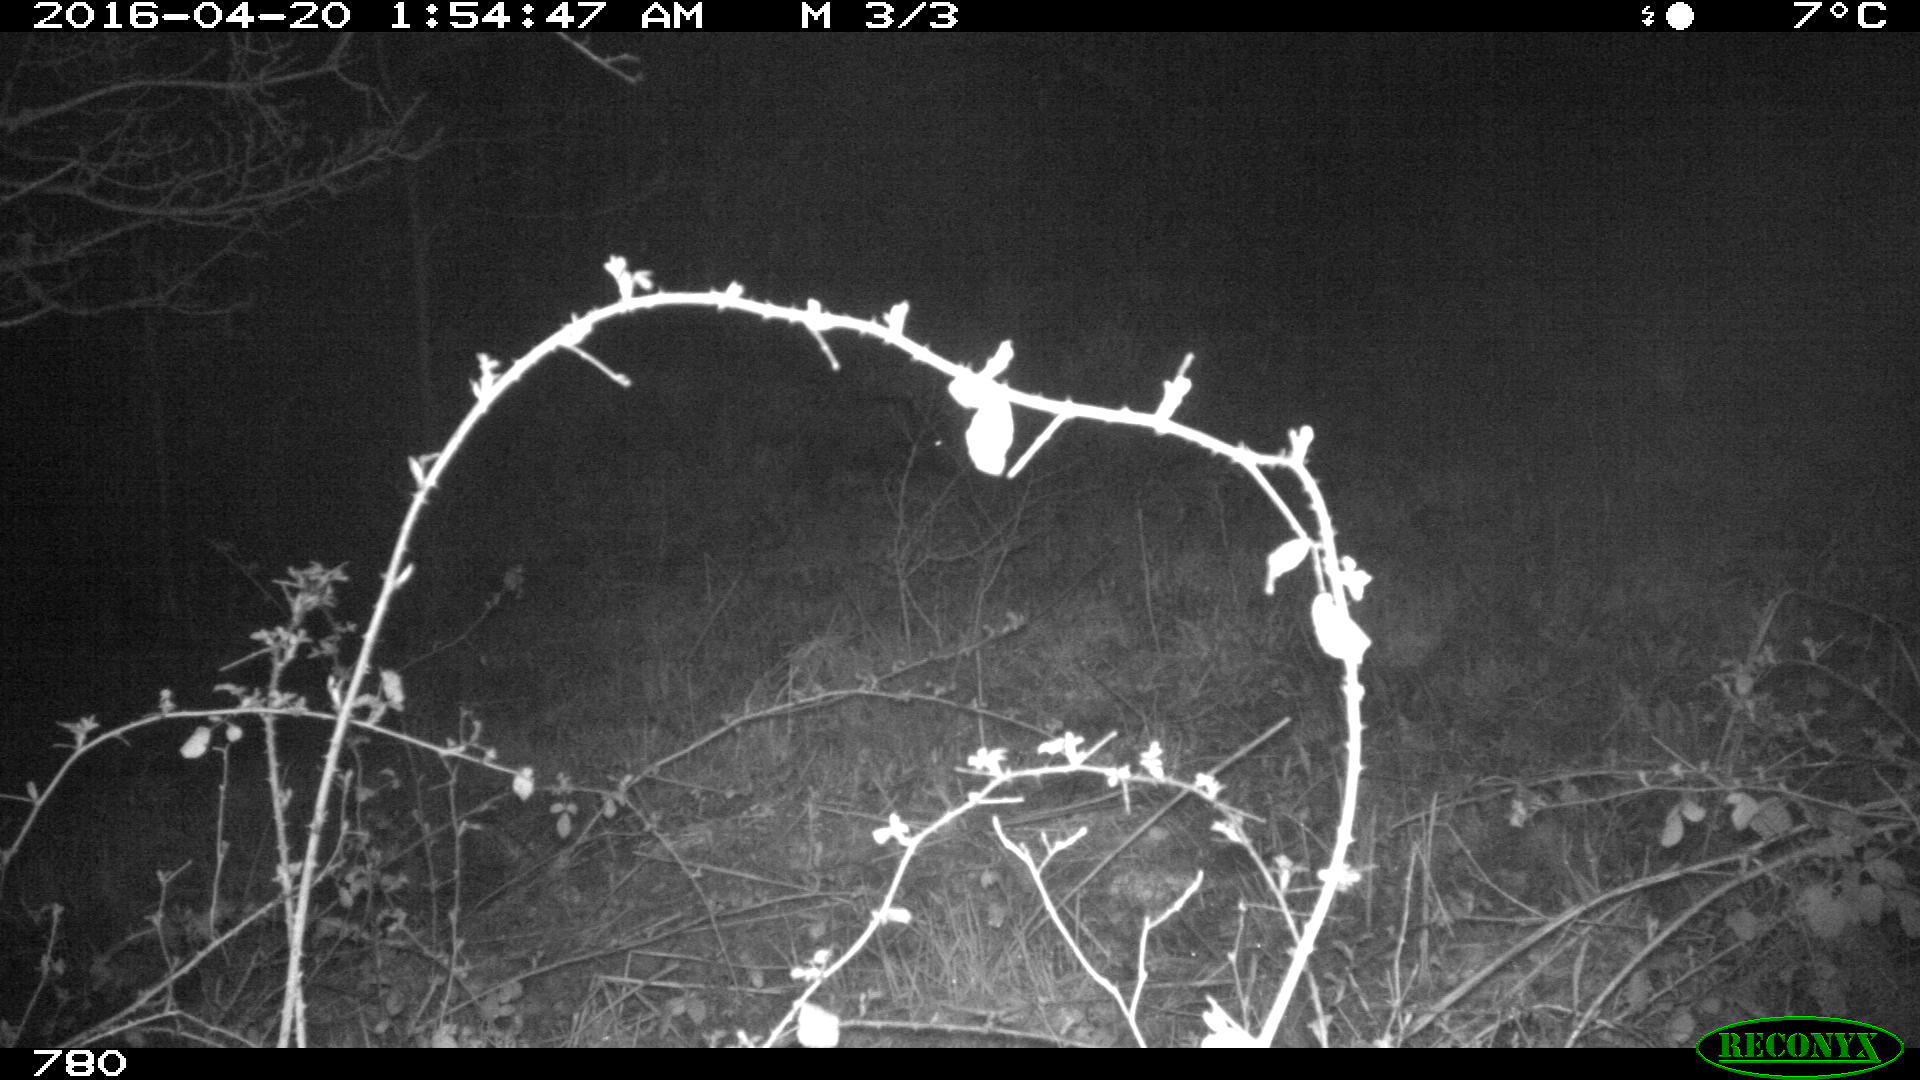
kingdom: Animalia
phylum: Chordata
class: Mammalia
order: Artiodactyla
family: Suidae
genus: Sus
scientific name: Sus scrofa
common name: Wild boar
